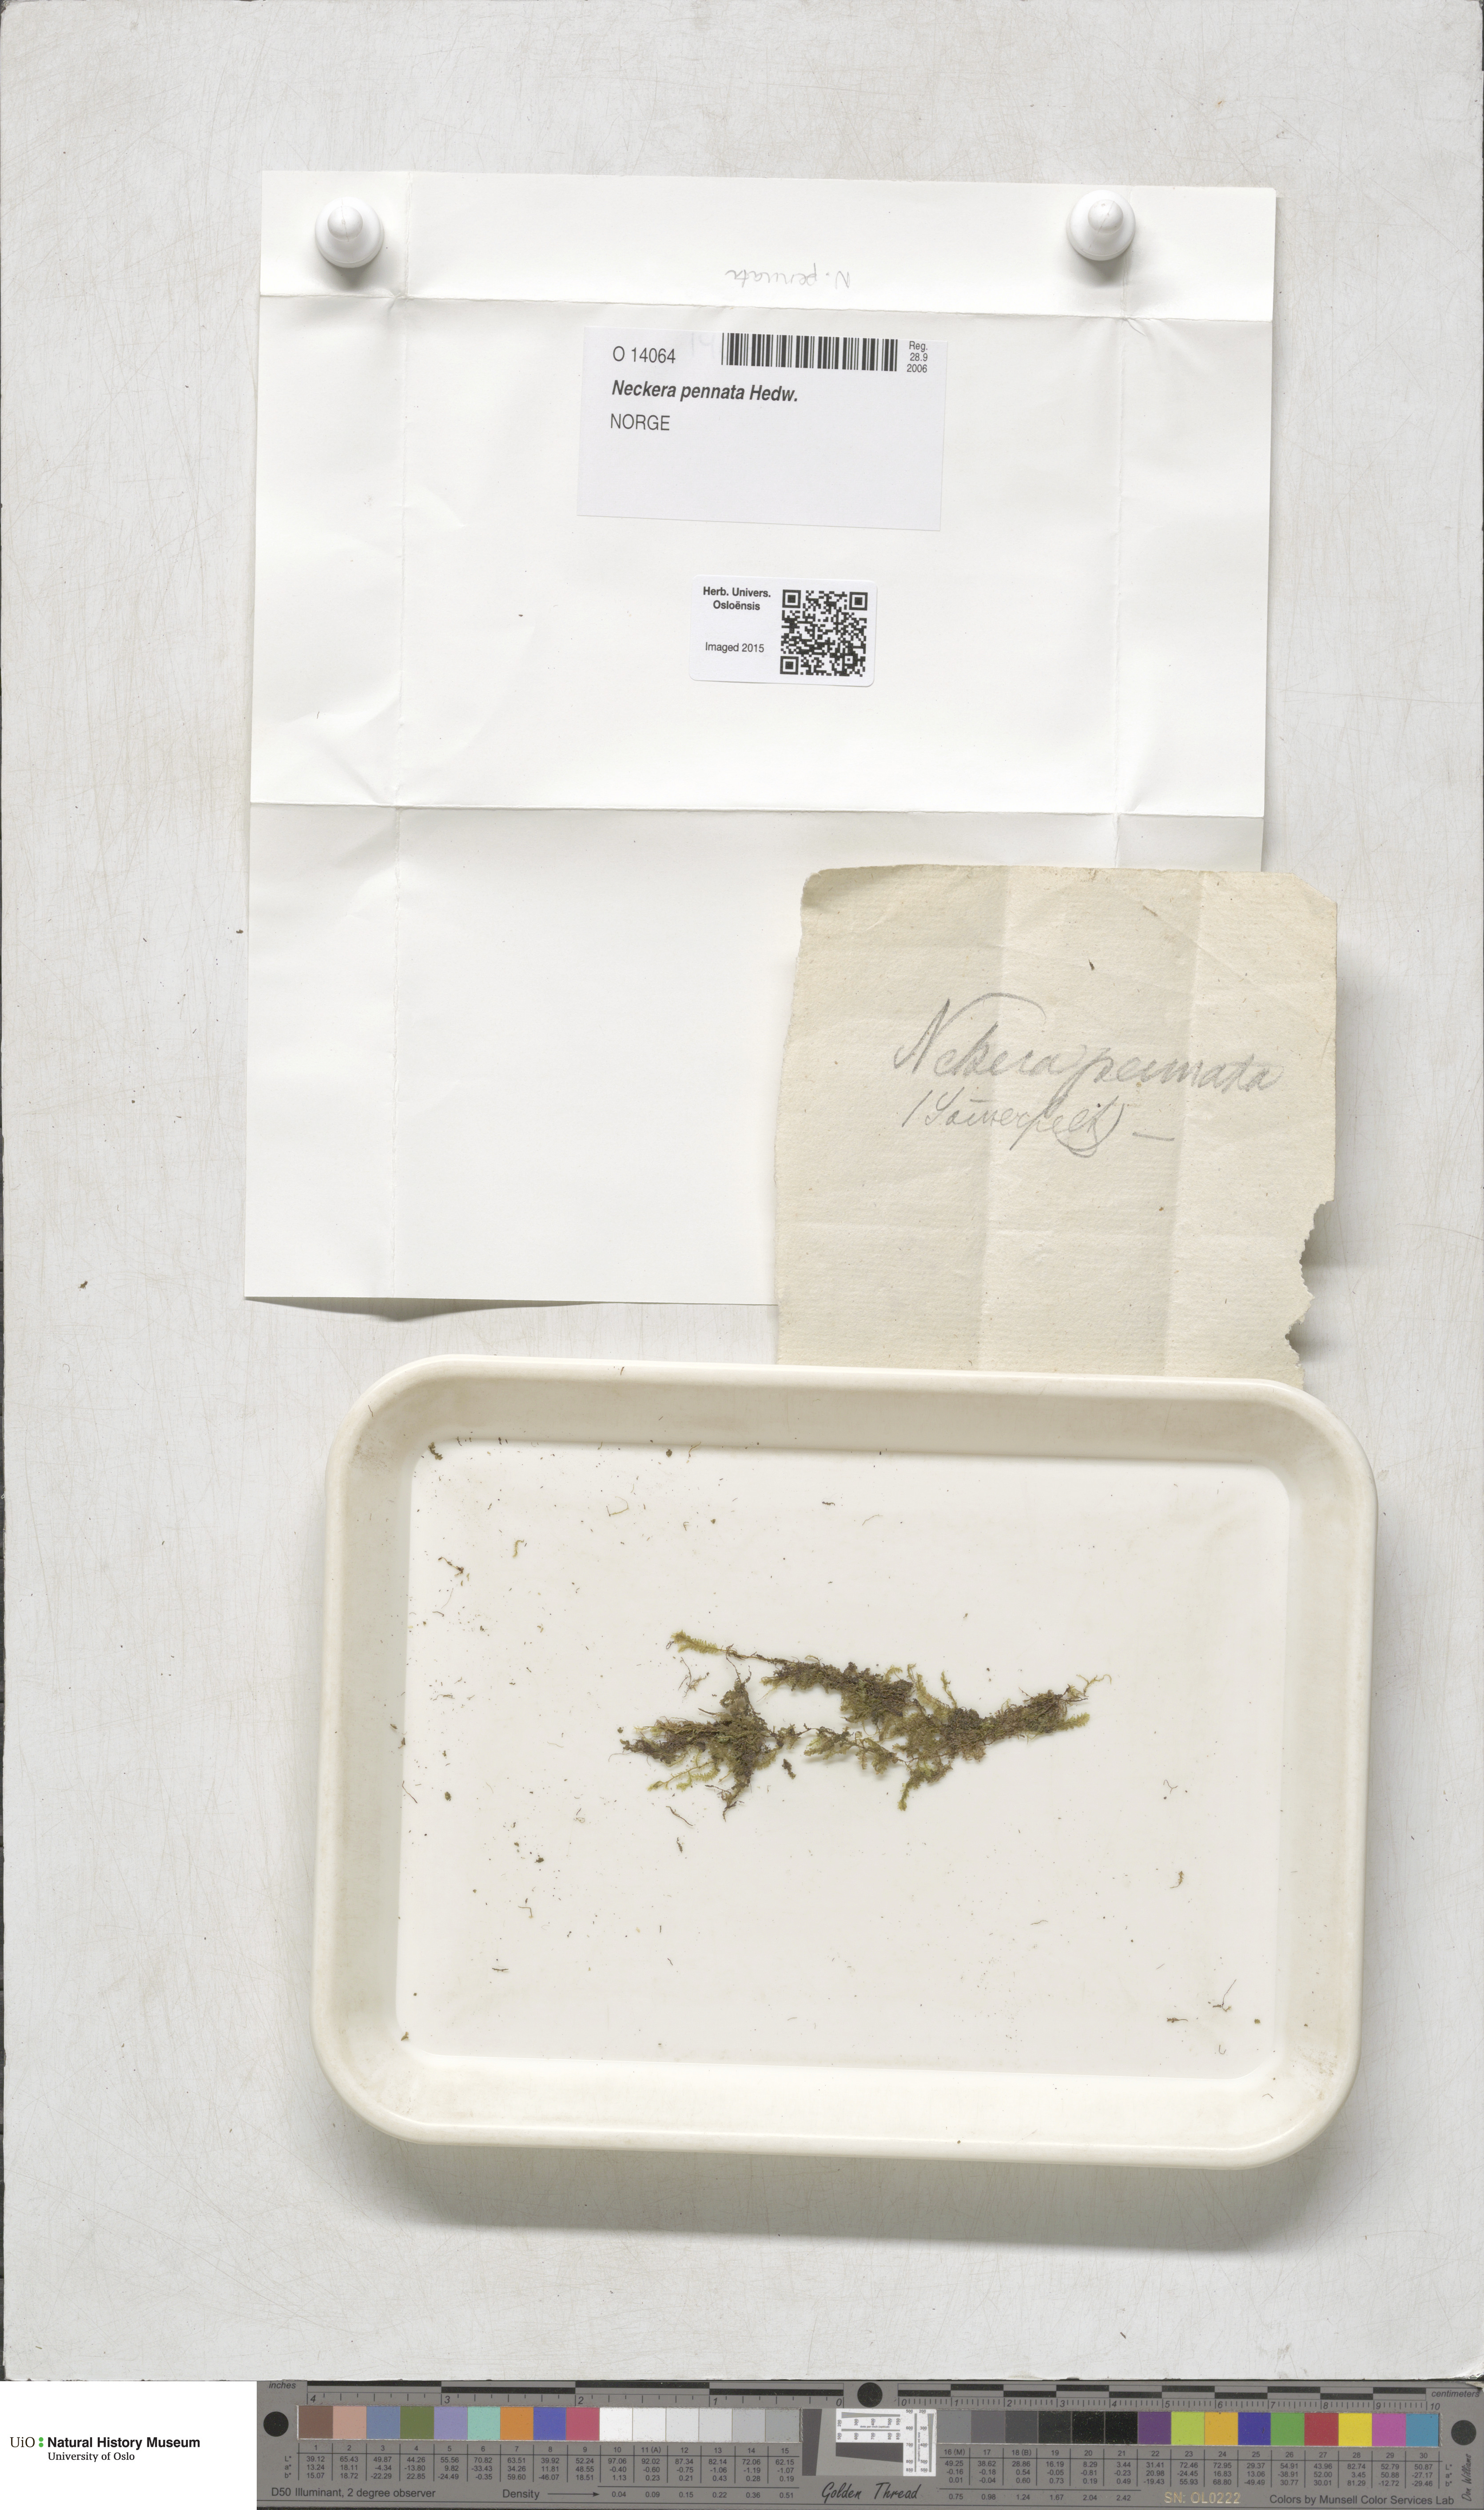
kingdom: Plantae
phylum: Bryophyta
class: Bryopsida
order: Hypnales
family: Neckeraceae
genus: Neckera
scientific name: Neckera pennata
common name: Feathery neckera
